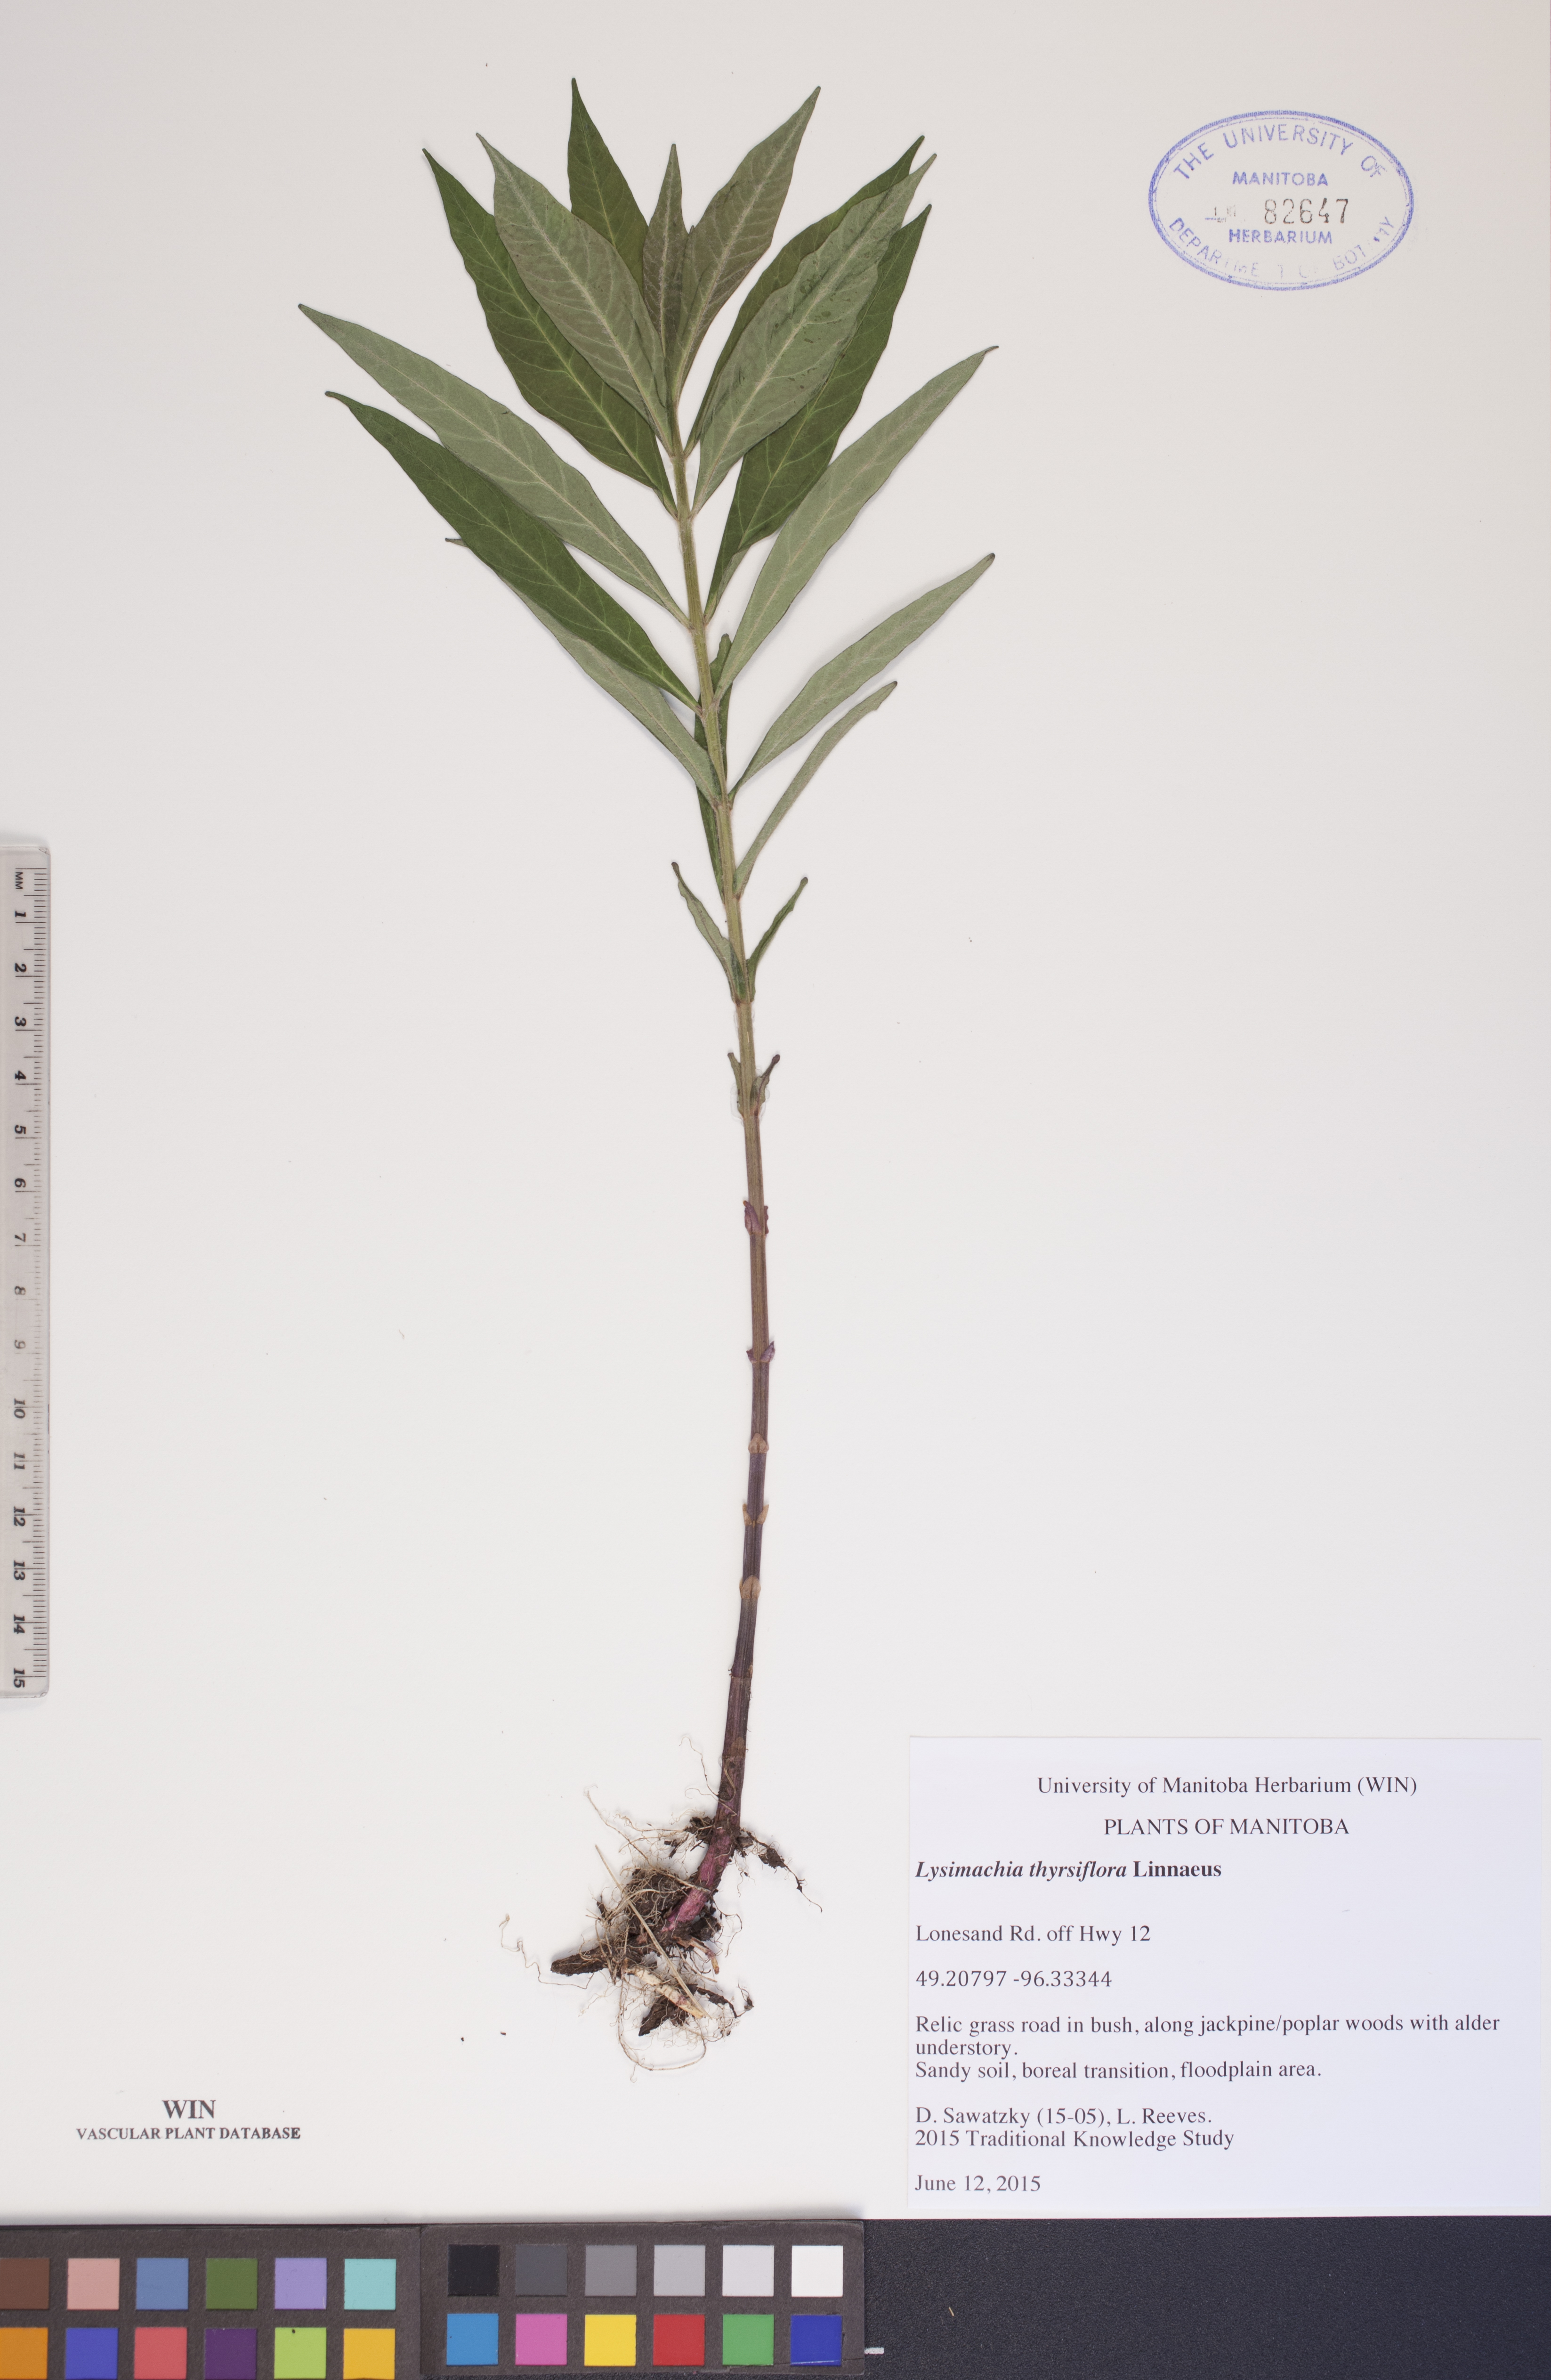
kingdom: Plantae
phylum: Tracheophyta
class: Magnoliopsida
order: Ericales
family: Primulaceae
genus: Lysimachia
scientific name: Lysimachia thyrsiflora
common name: Tufted loosestrife
